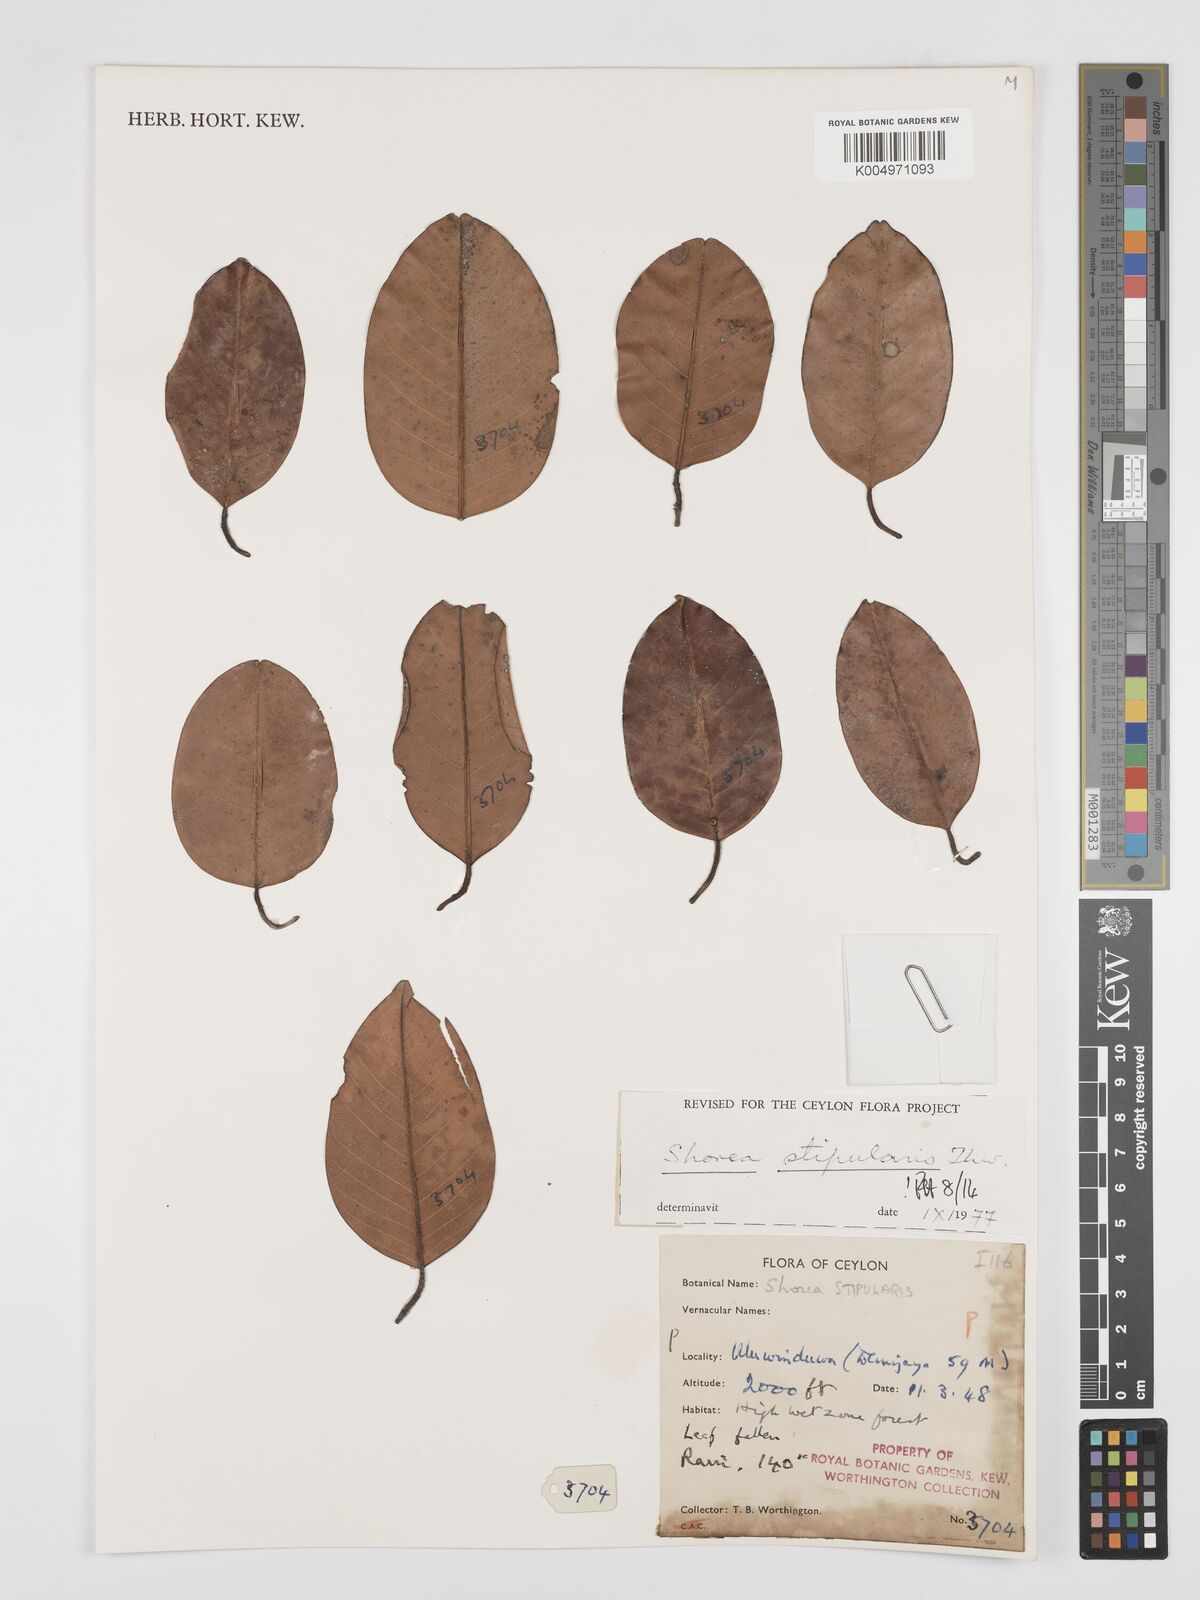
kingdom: Plantae
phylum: Tracheophyta
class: Magnoliopsida
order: Malvales
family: Dipterocarpaceae
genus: Anthoshorea
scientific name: Anthoshorea stipularis
